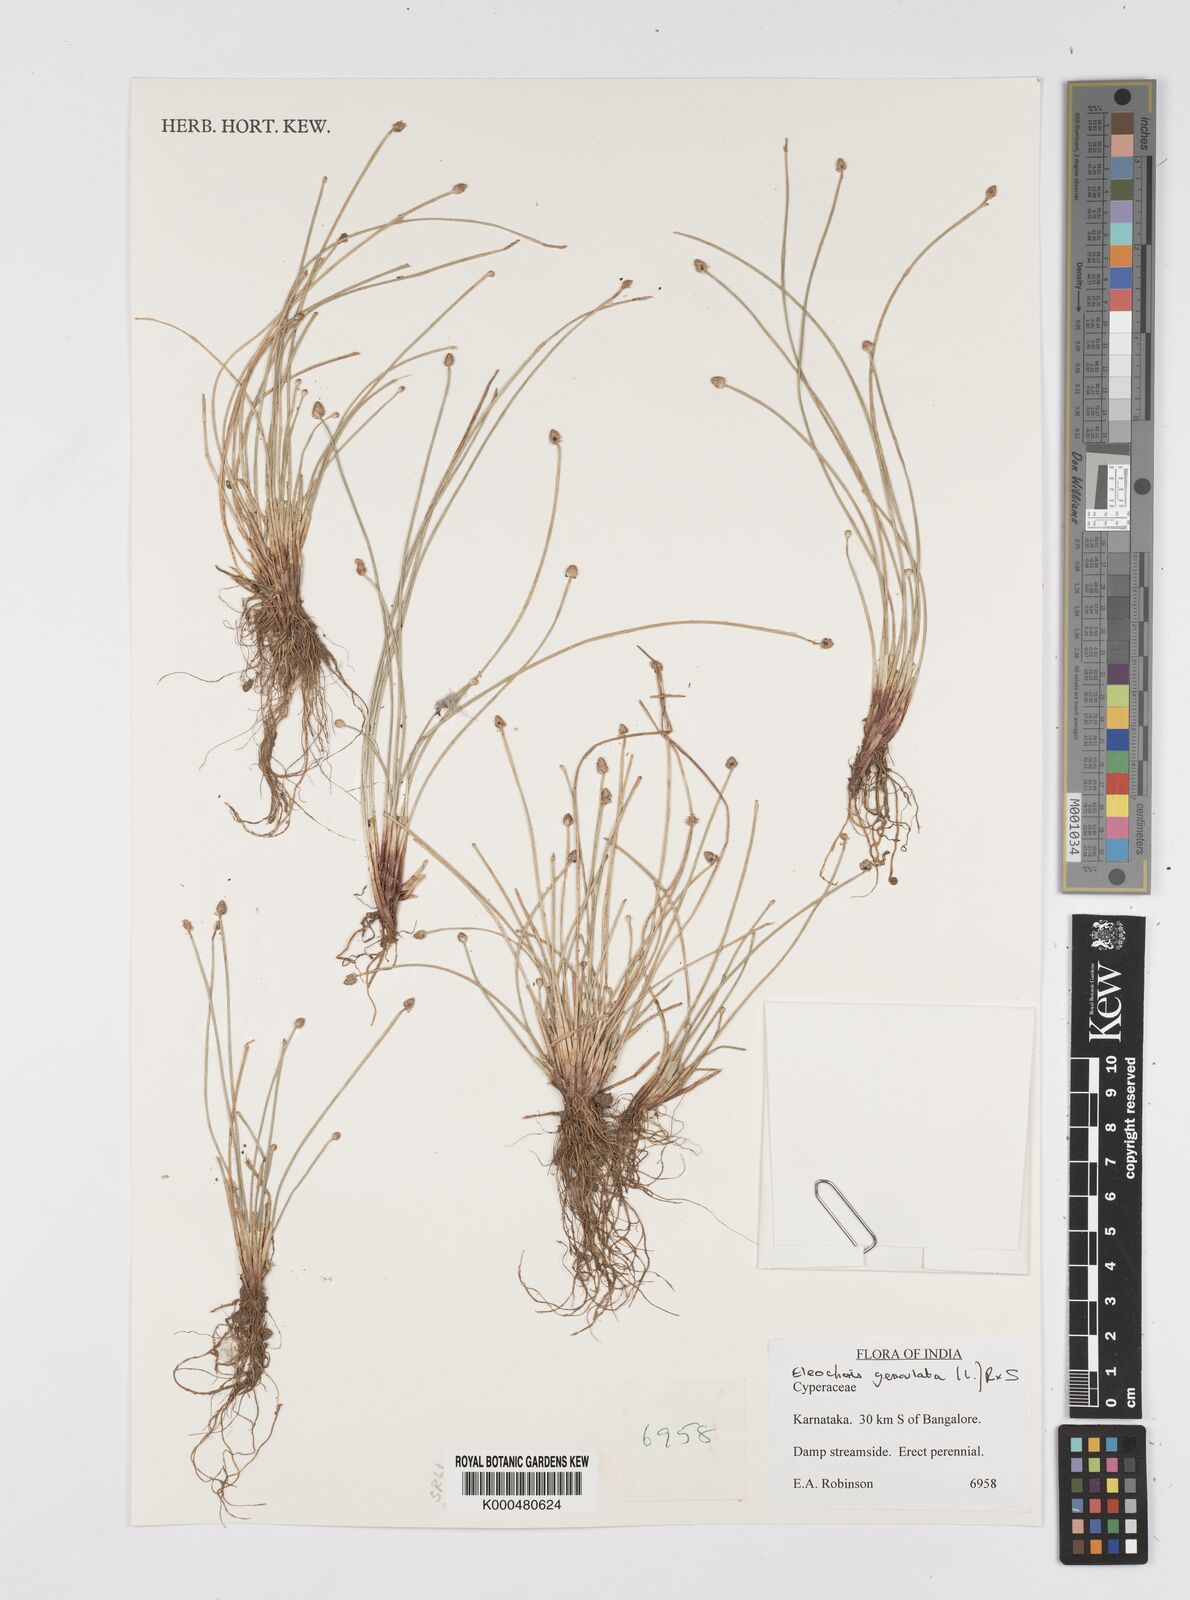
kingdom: Plantae
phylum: Tracheophyta
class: Liliopsida
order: Poales
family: Cyperaceae
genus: Eleocharis
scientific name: Eleocharis geniculata
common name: Canada spikesedge
